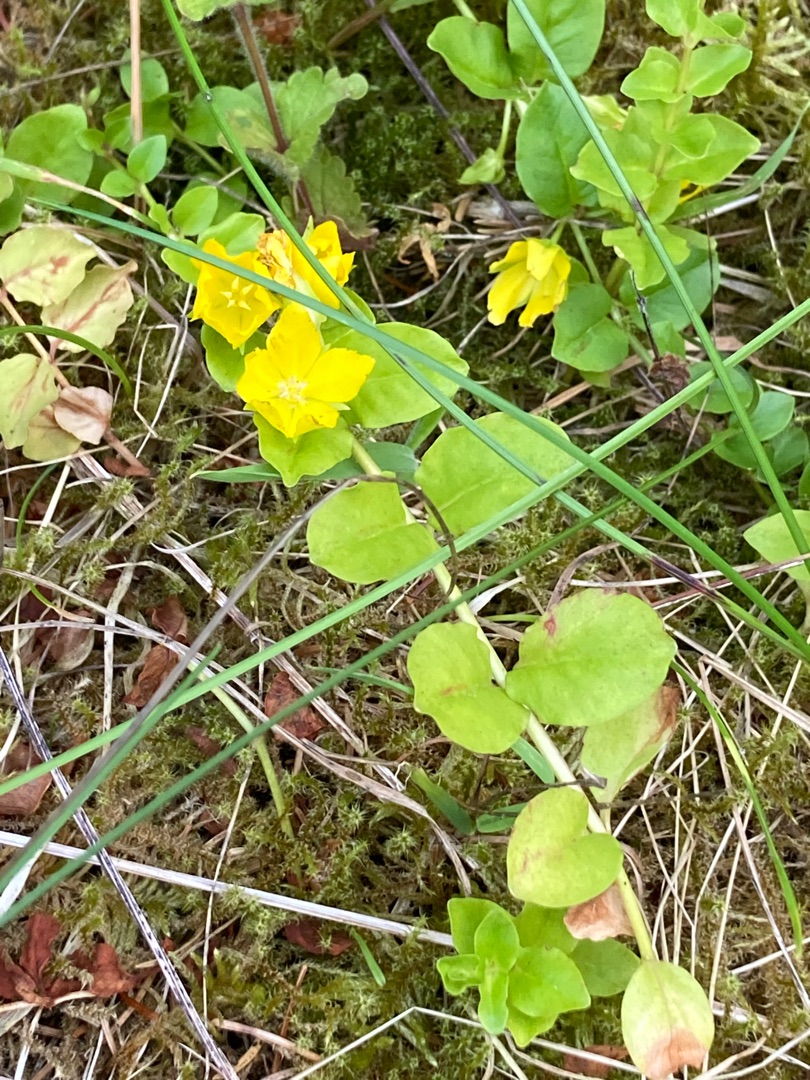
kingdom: Plantae
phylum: Tracheophyta
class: Magnoliopsida
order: Ericales
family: Primulaceae
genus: Lysimachia
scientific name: Lysimachia nummularia
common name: Pengebladet fredløs
